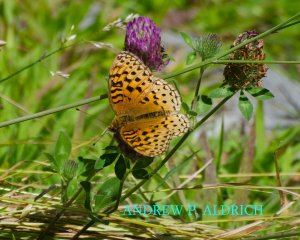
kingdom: Animalia
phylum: Arthropoda
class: Insecta
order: Lepidoptera
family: Nymphalidae
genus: Speyeria
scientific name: Speyeria aphrodite
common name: Aphrodite Fritillary
